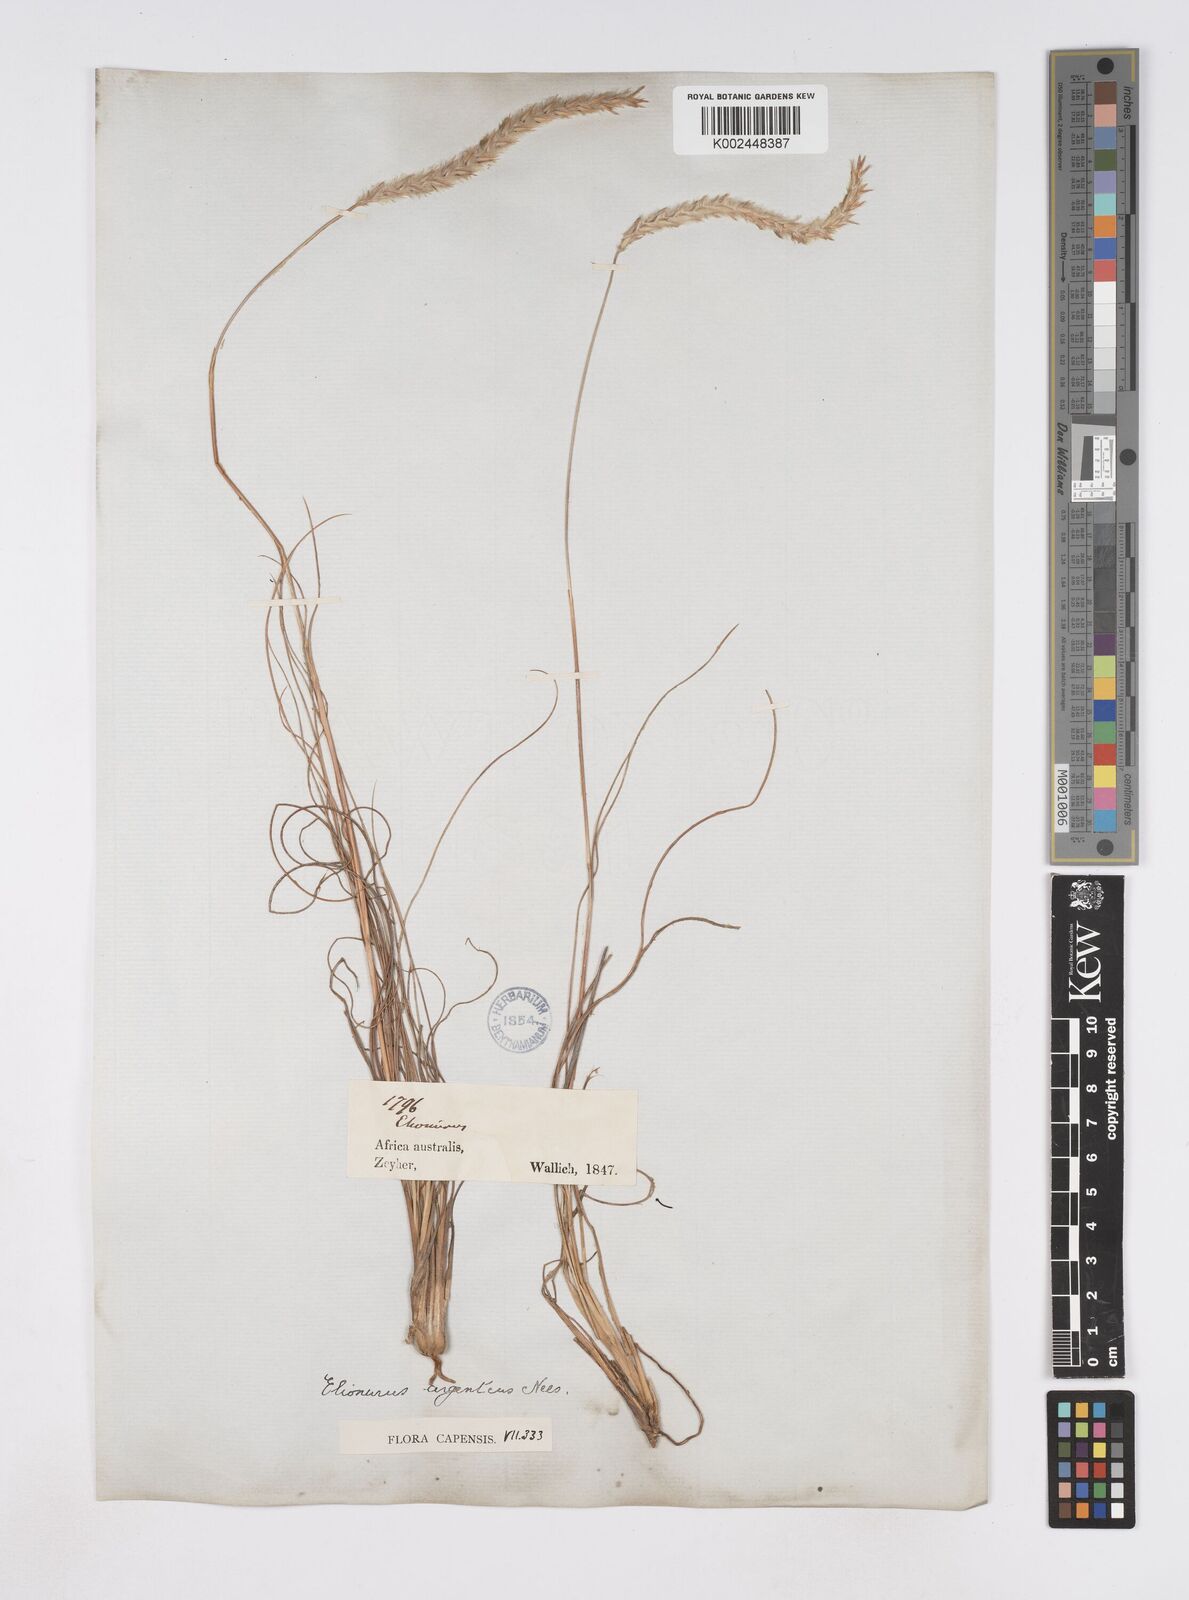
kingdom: Plantae
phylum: Tracheophyta
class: Liliopsida
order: Poales
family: Poaceae
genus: Elionurus
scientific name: Elionurus muticus
